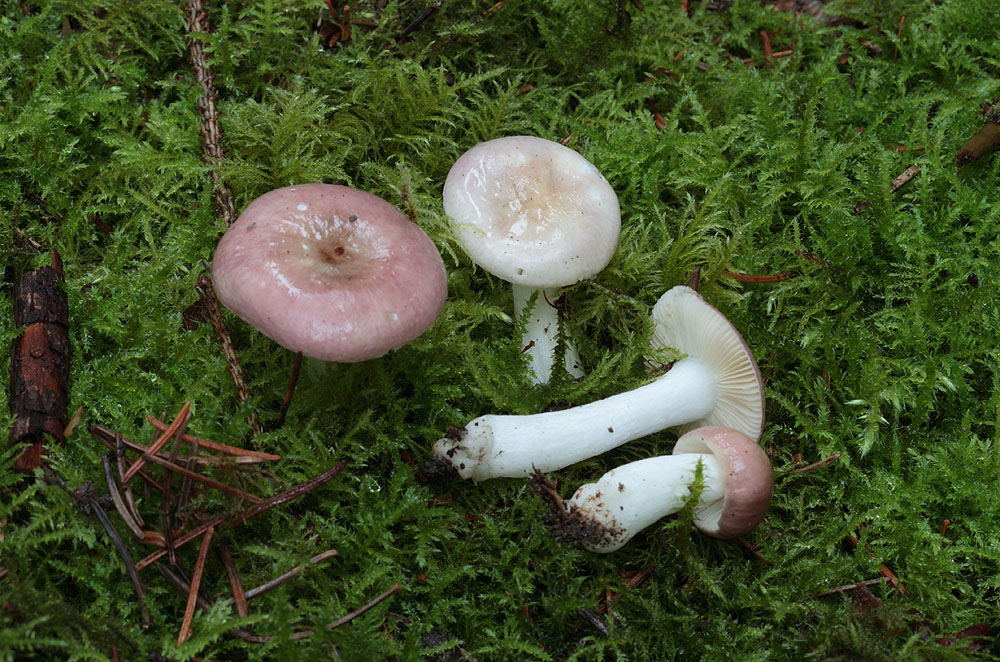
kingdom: Fungi
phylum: Basidiomycota
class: Agaricomycetes
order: Russulales
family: Russulaceae
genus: Russula
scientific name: Russula nauseosa
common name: spinkel skørhat
